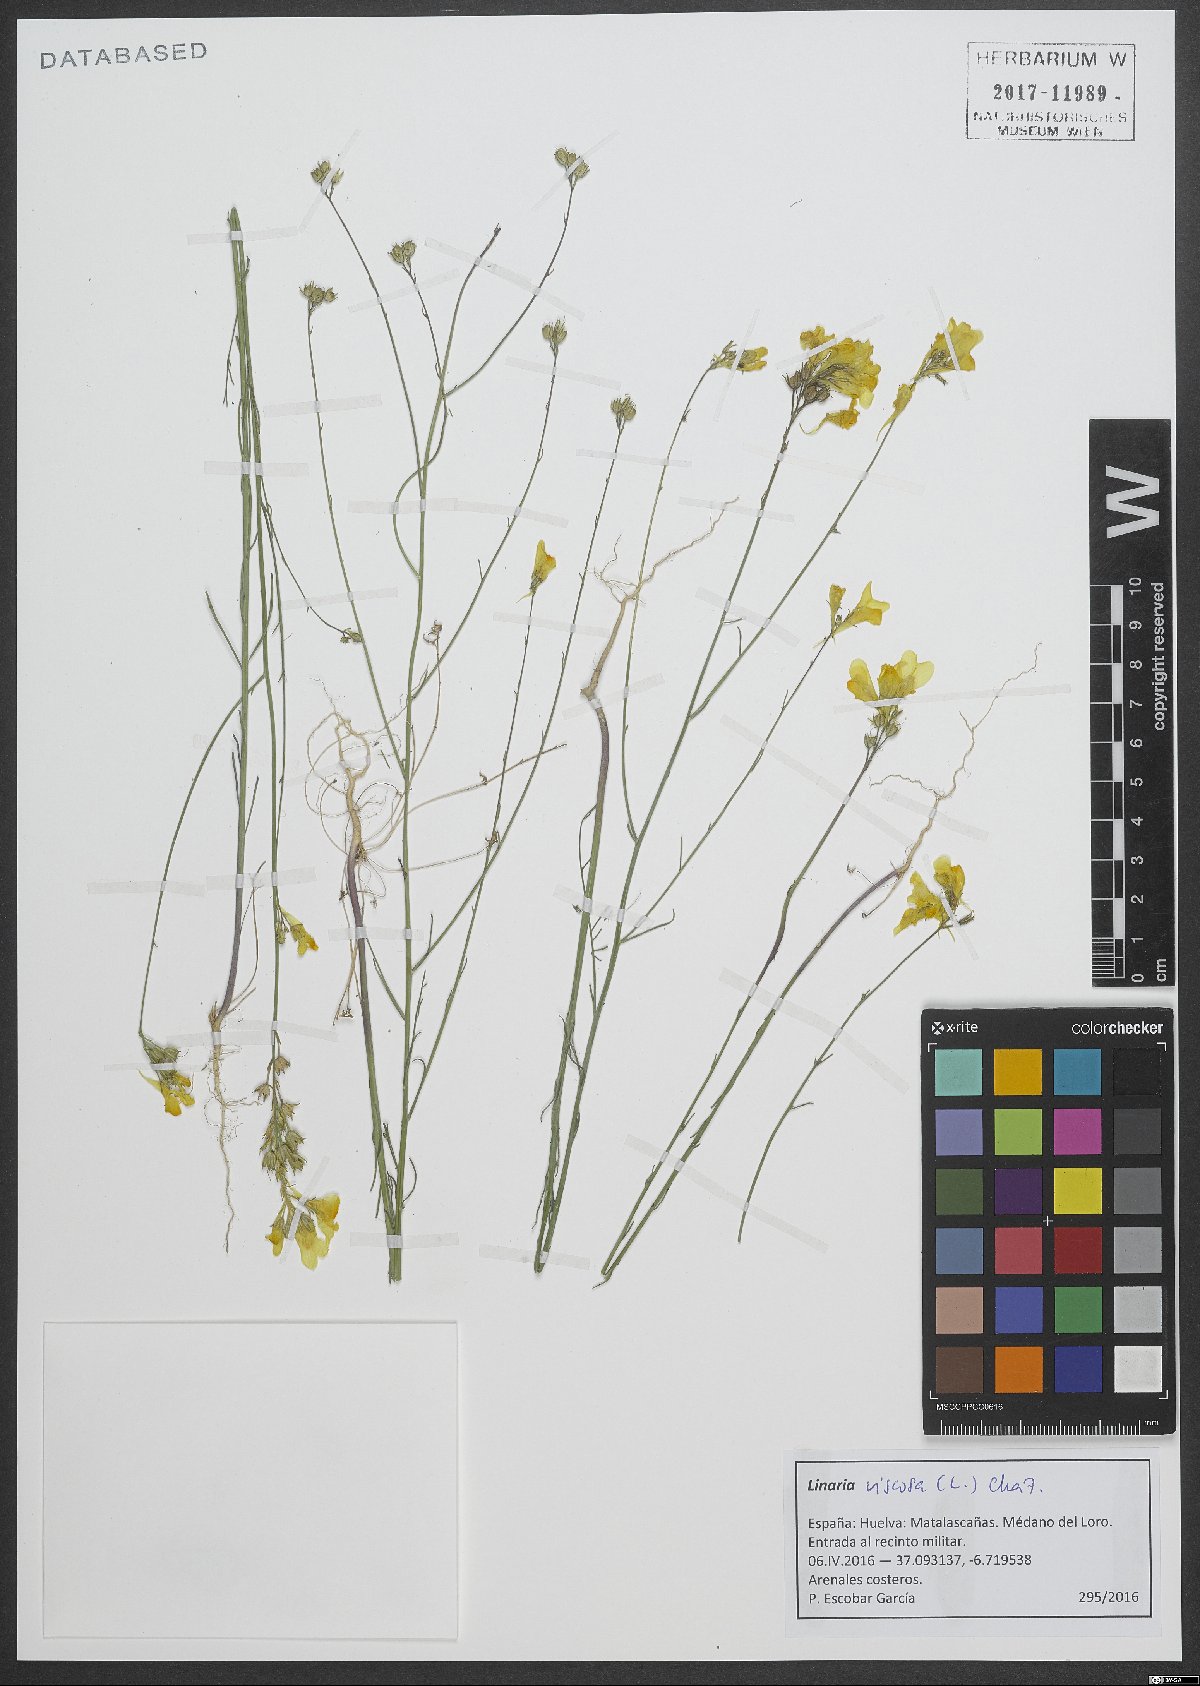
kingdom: Plantae
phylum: Tracheophyta
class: Magnoliopsida
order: Lamiales
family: Plantaginaceae
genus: Linaria
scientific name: Linaria viscosa
